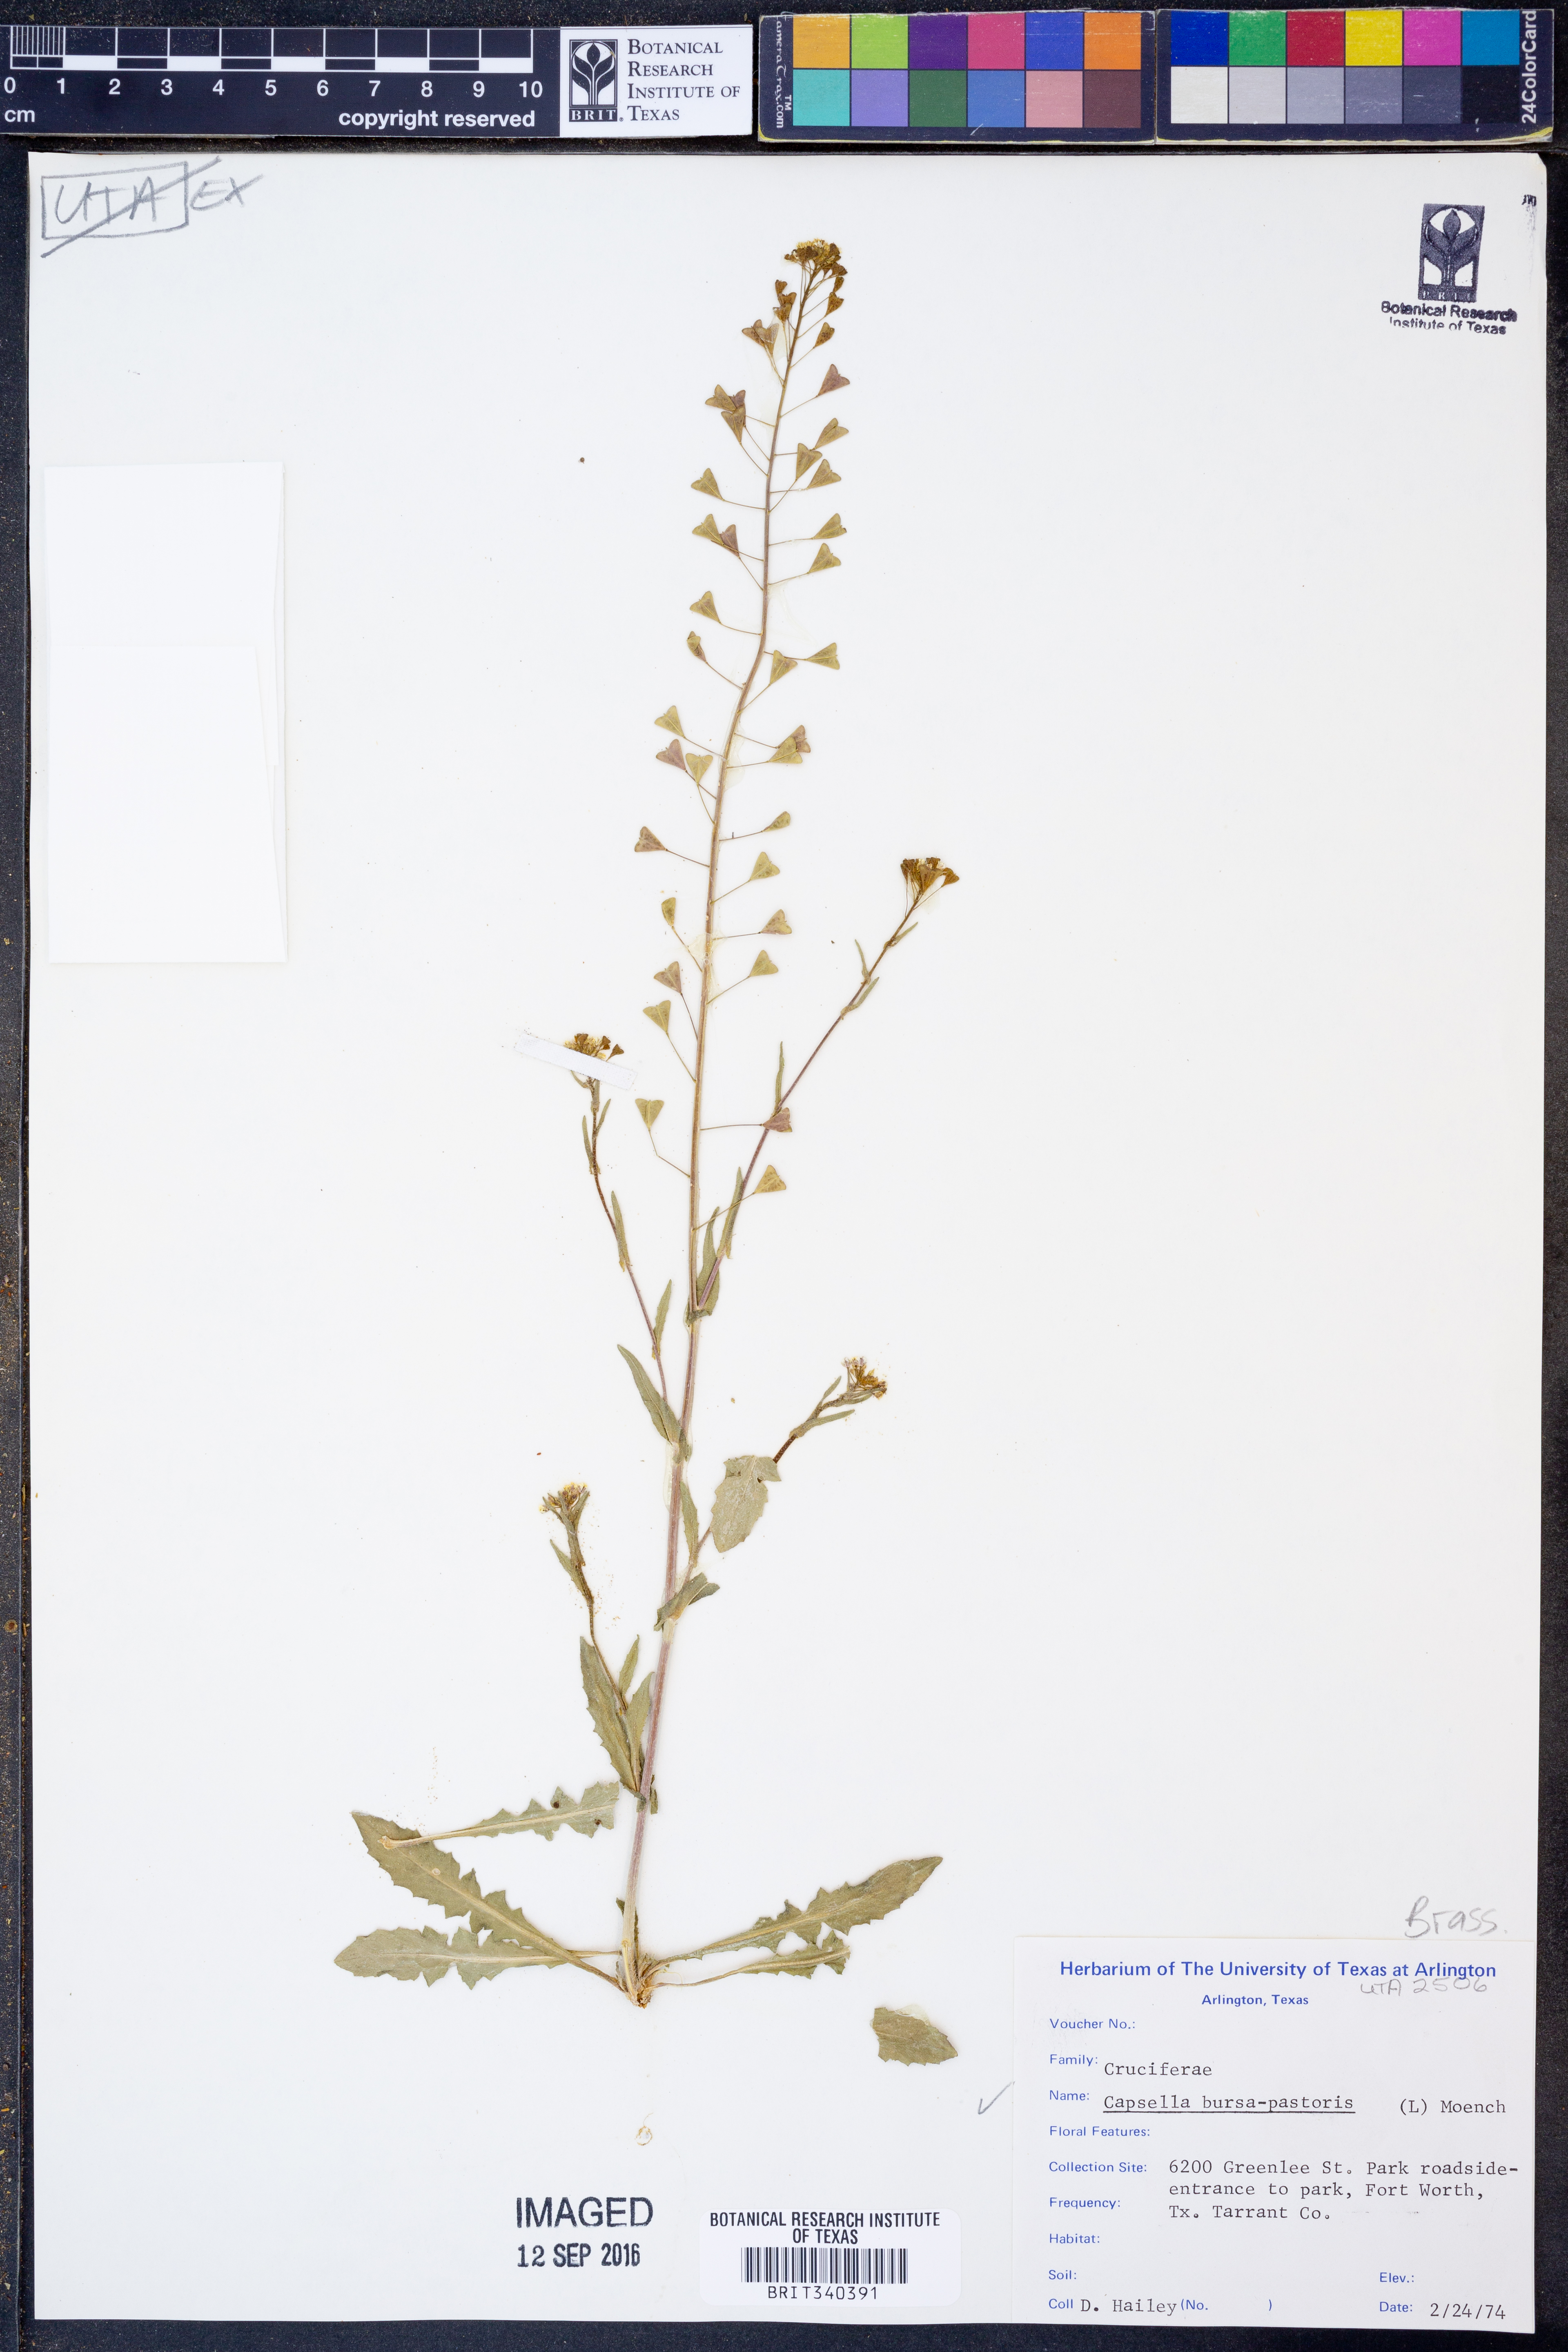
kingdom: Plantae
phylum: Tracheophyta
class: Magnoliopsida
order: Brassicales
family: Brassicaceae
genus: Capsella
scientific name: Capsella bursa-pastoris
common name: Shepherd's purse
